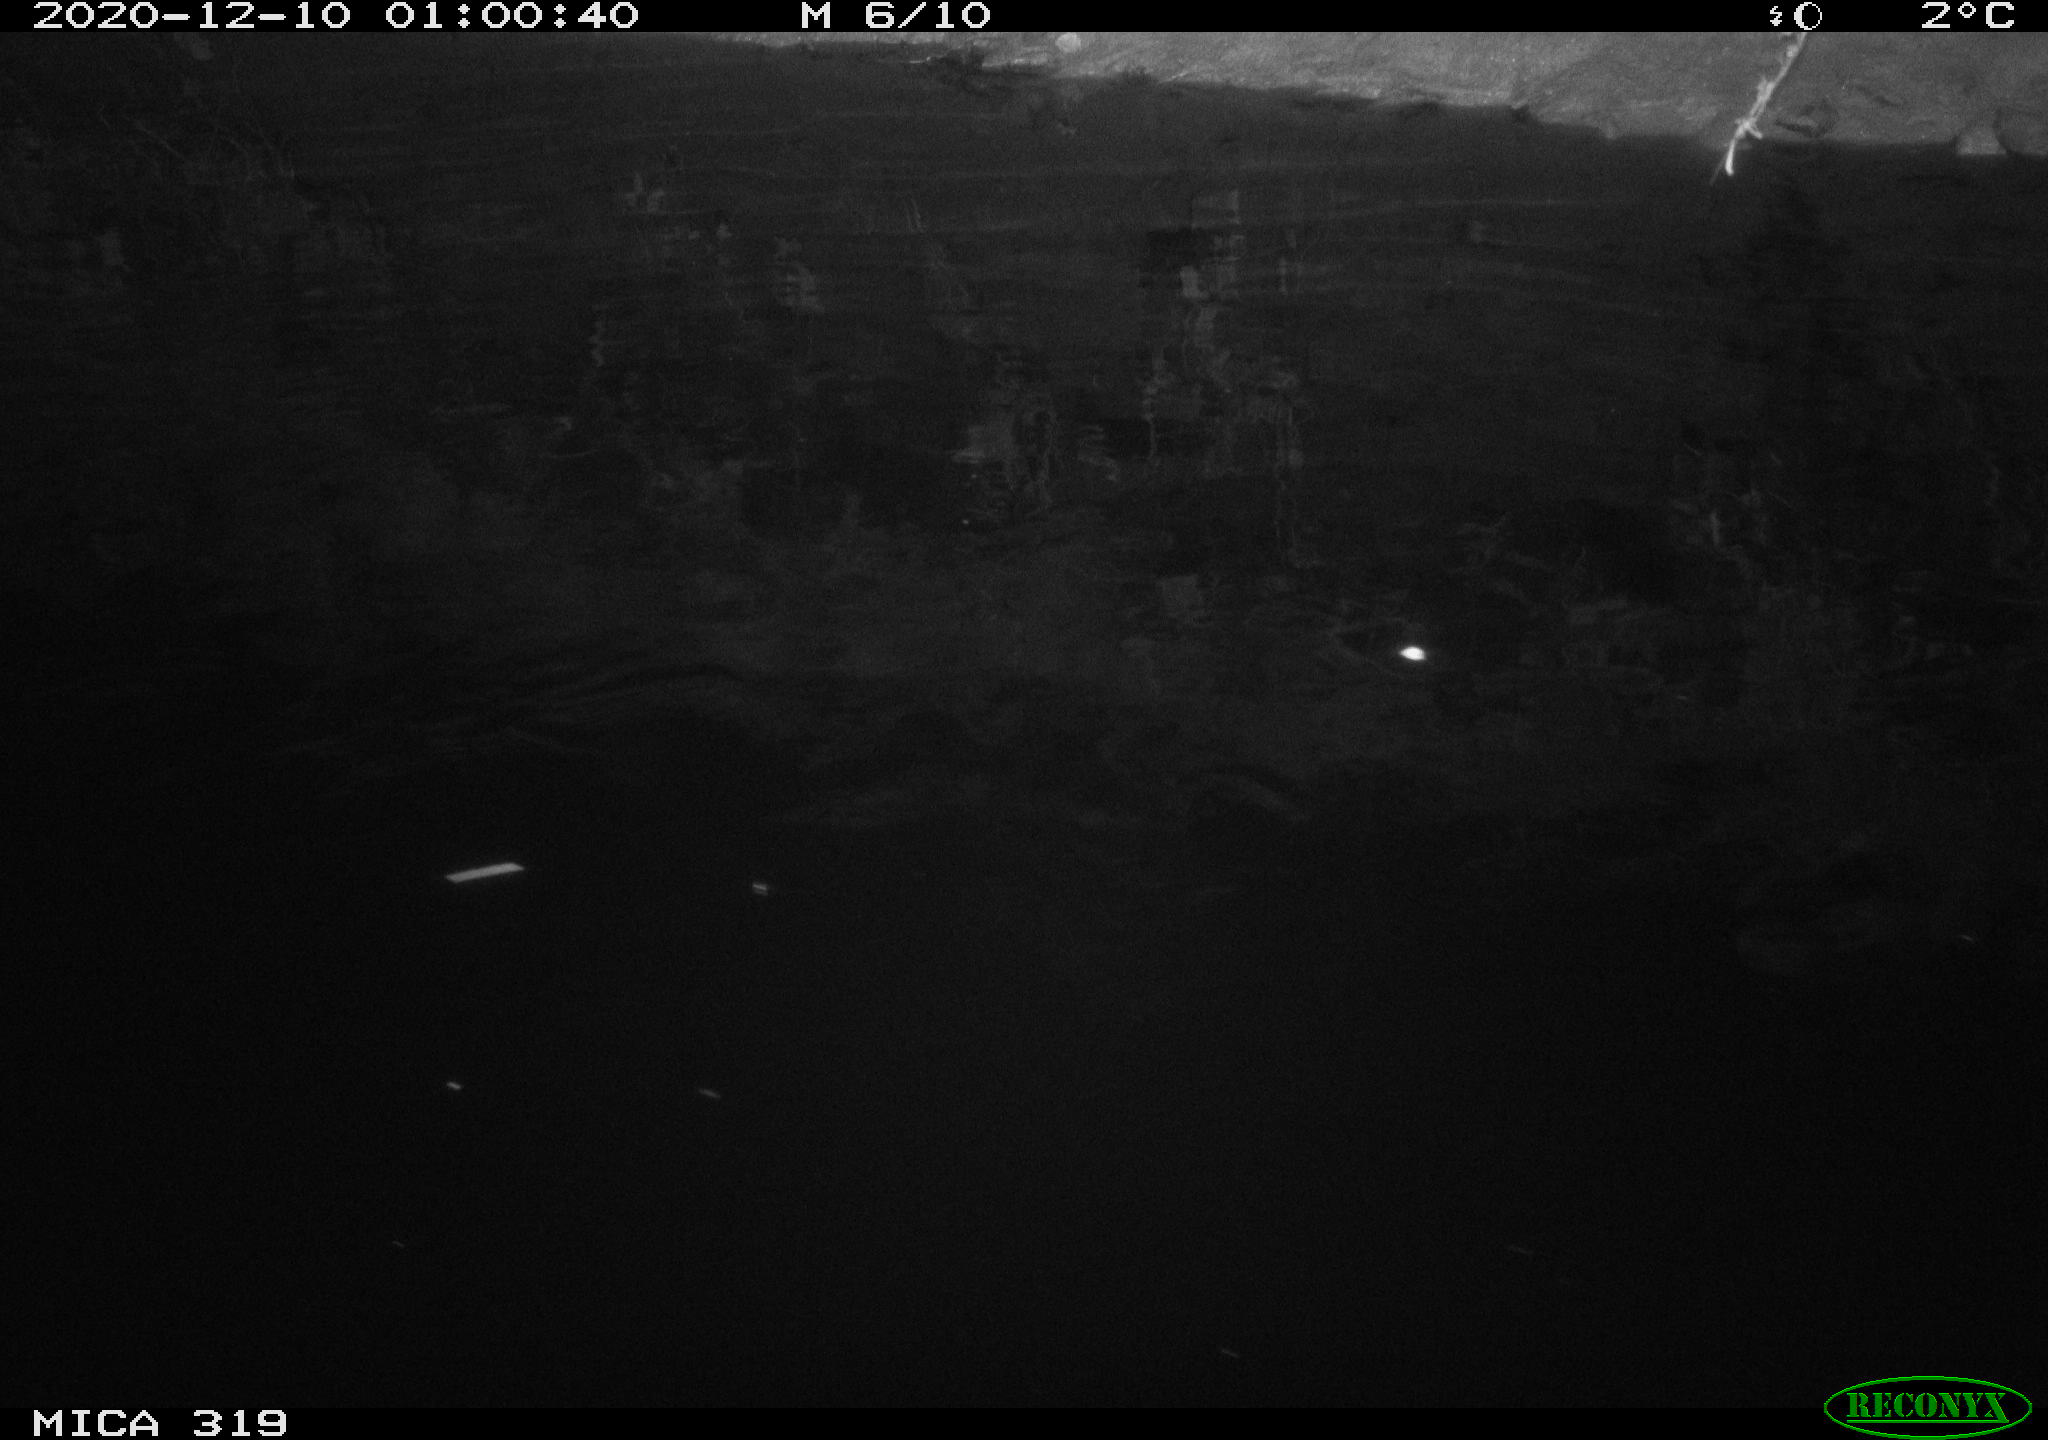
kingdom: Animalia
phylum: Chordata
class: Mammalia
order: Rodentia
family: Muridae
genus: Rattus
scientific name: Rattus norvegicus
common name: Brown rat
